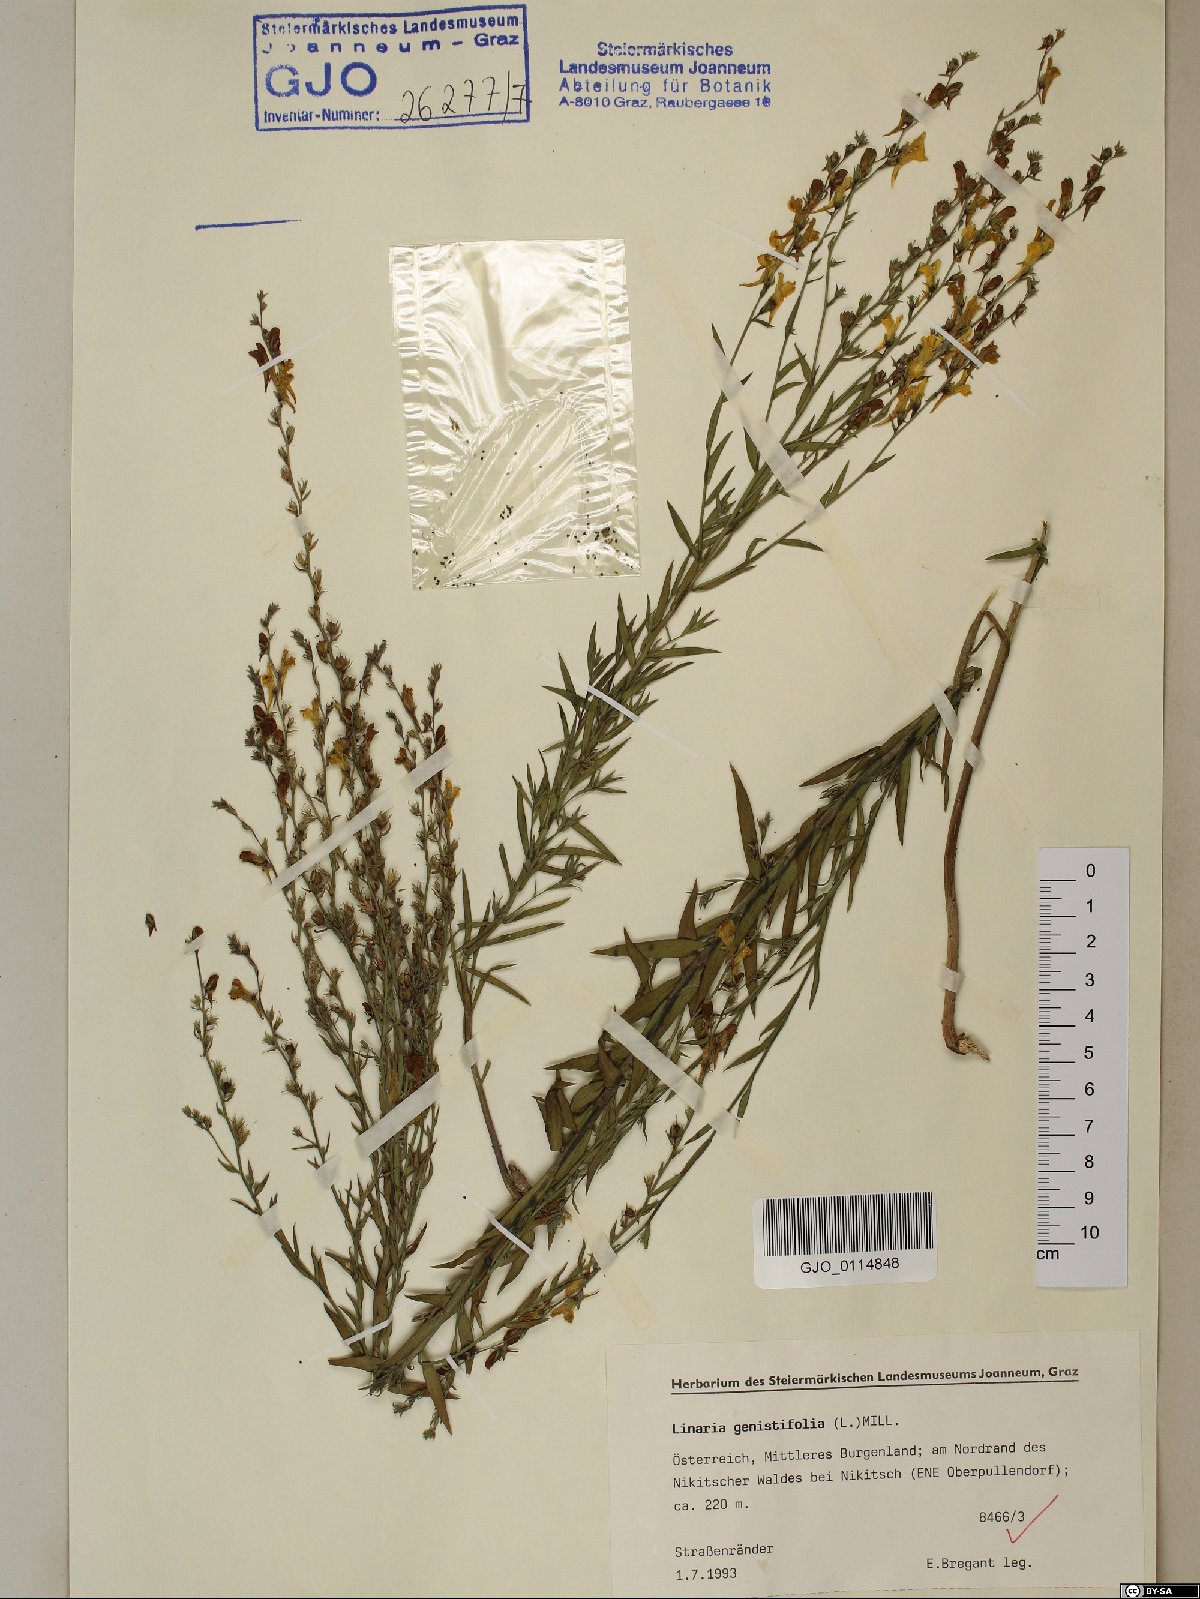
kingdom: Plantae
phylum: Tracheophyta
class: Magnoliopsida
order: Lamiales
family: Plantaginaceae
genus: Linaria
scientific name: Linaria genistifolia
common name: Broomleaf toadflax
